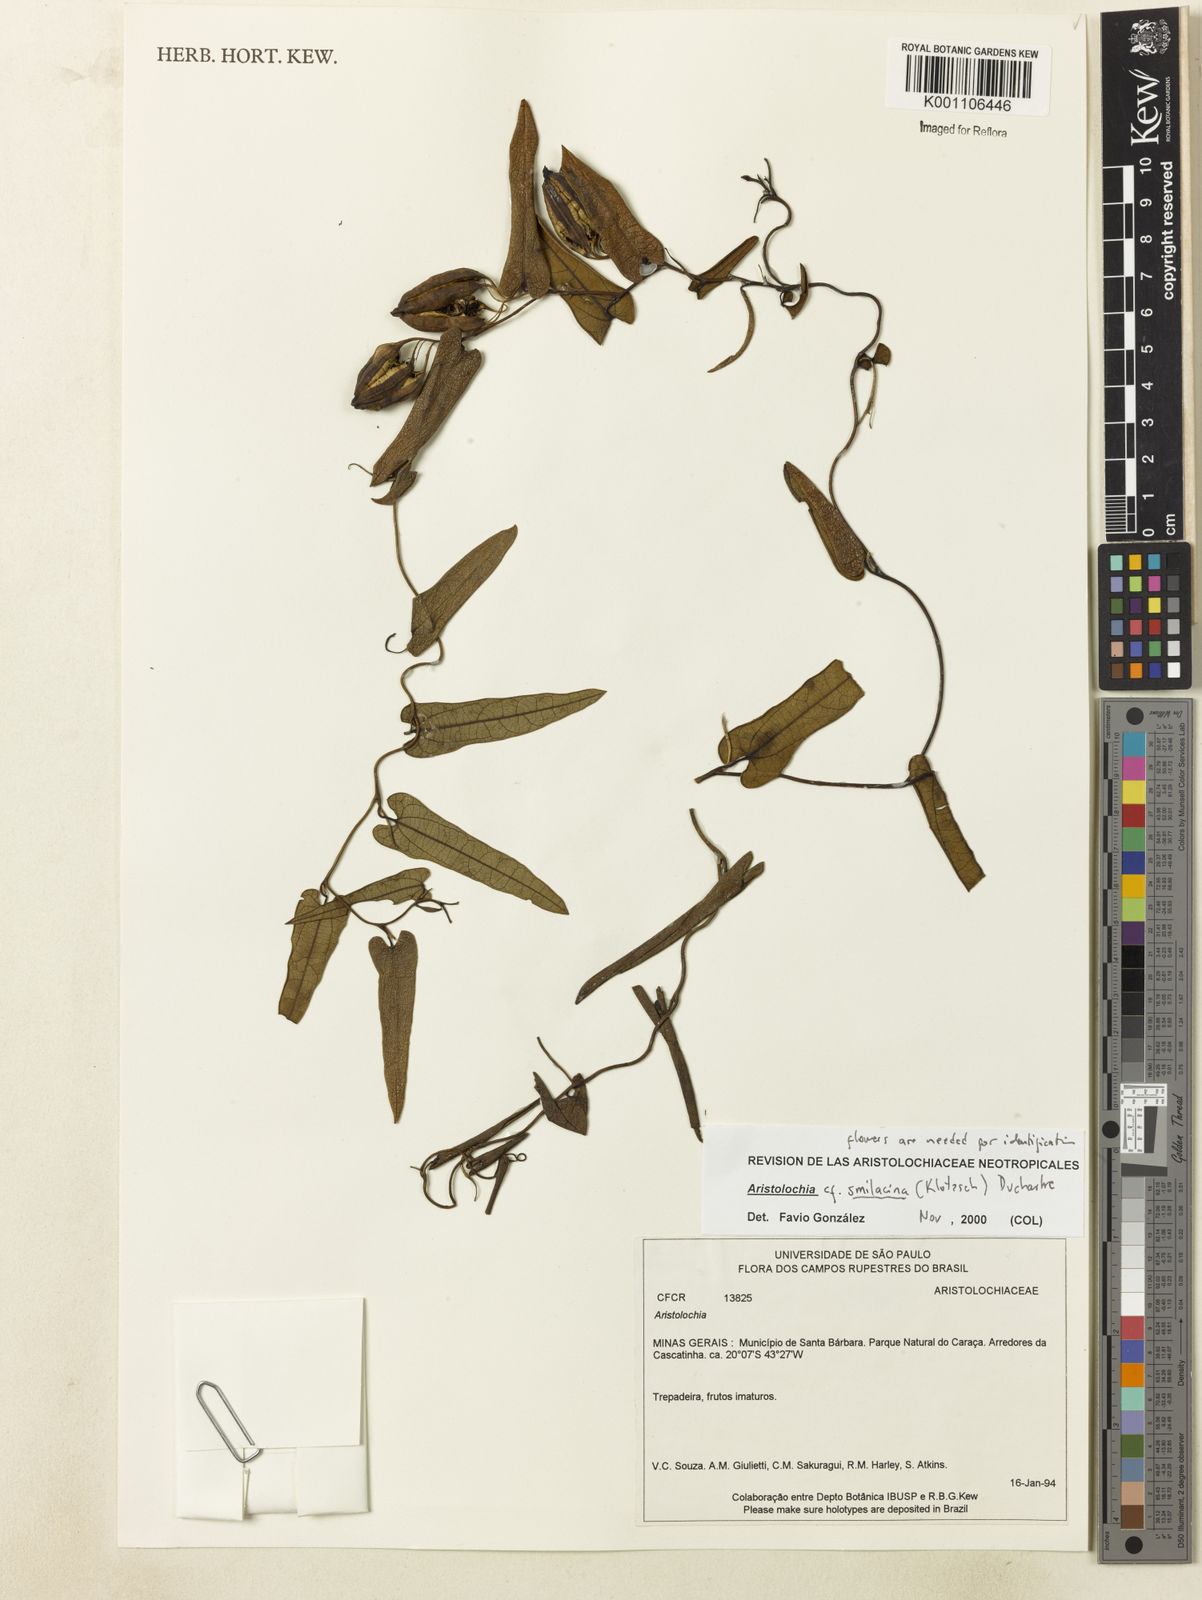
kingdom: Plantae
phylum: Tracheophyta
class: Magnoliopsida
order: Piperales
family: Aristolochiaceae
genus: Aristolochia
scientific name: Aristolochia smilacina
